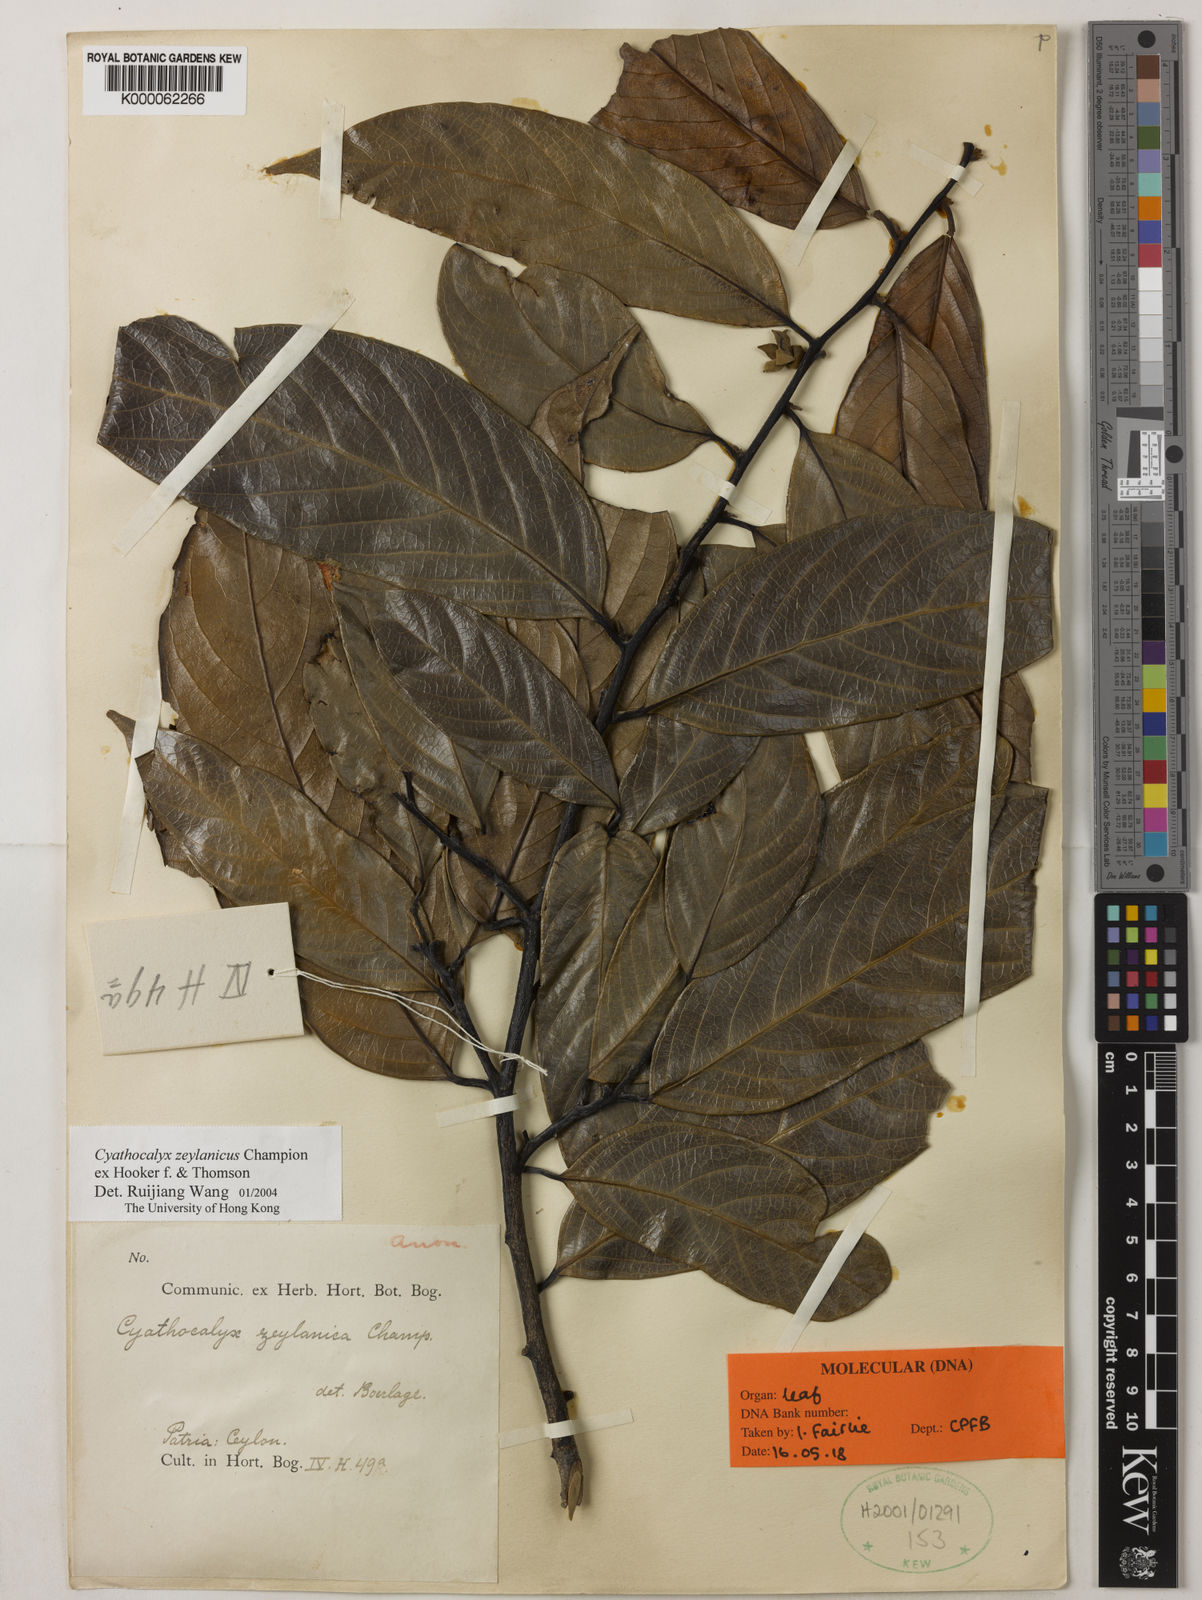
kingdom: Plantae
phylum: Tracheophyta
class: Magnoliopsida
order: Magnoliales
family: Annonaceae
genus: Cyathocalyx
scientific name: Cyathocalyx martabanicus
